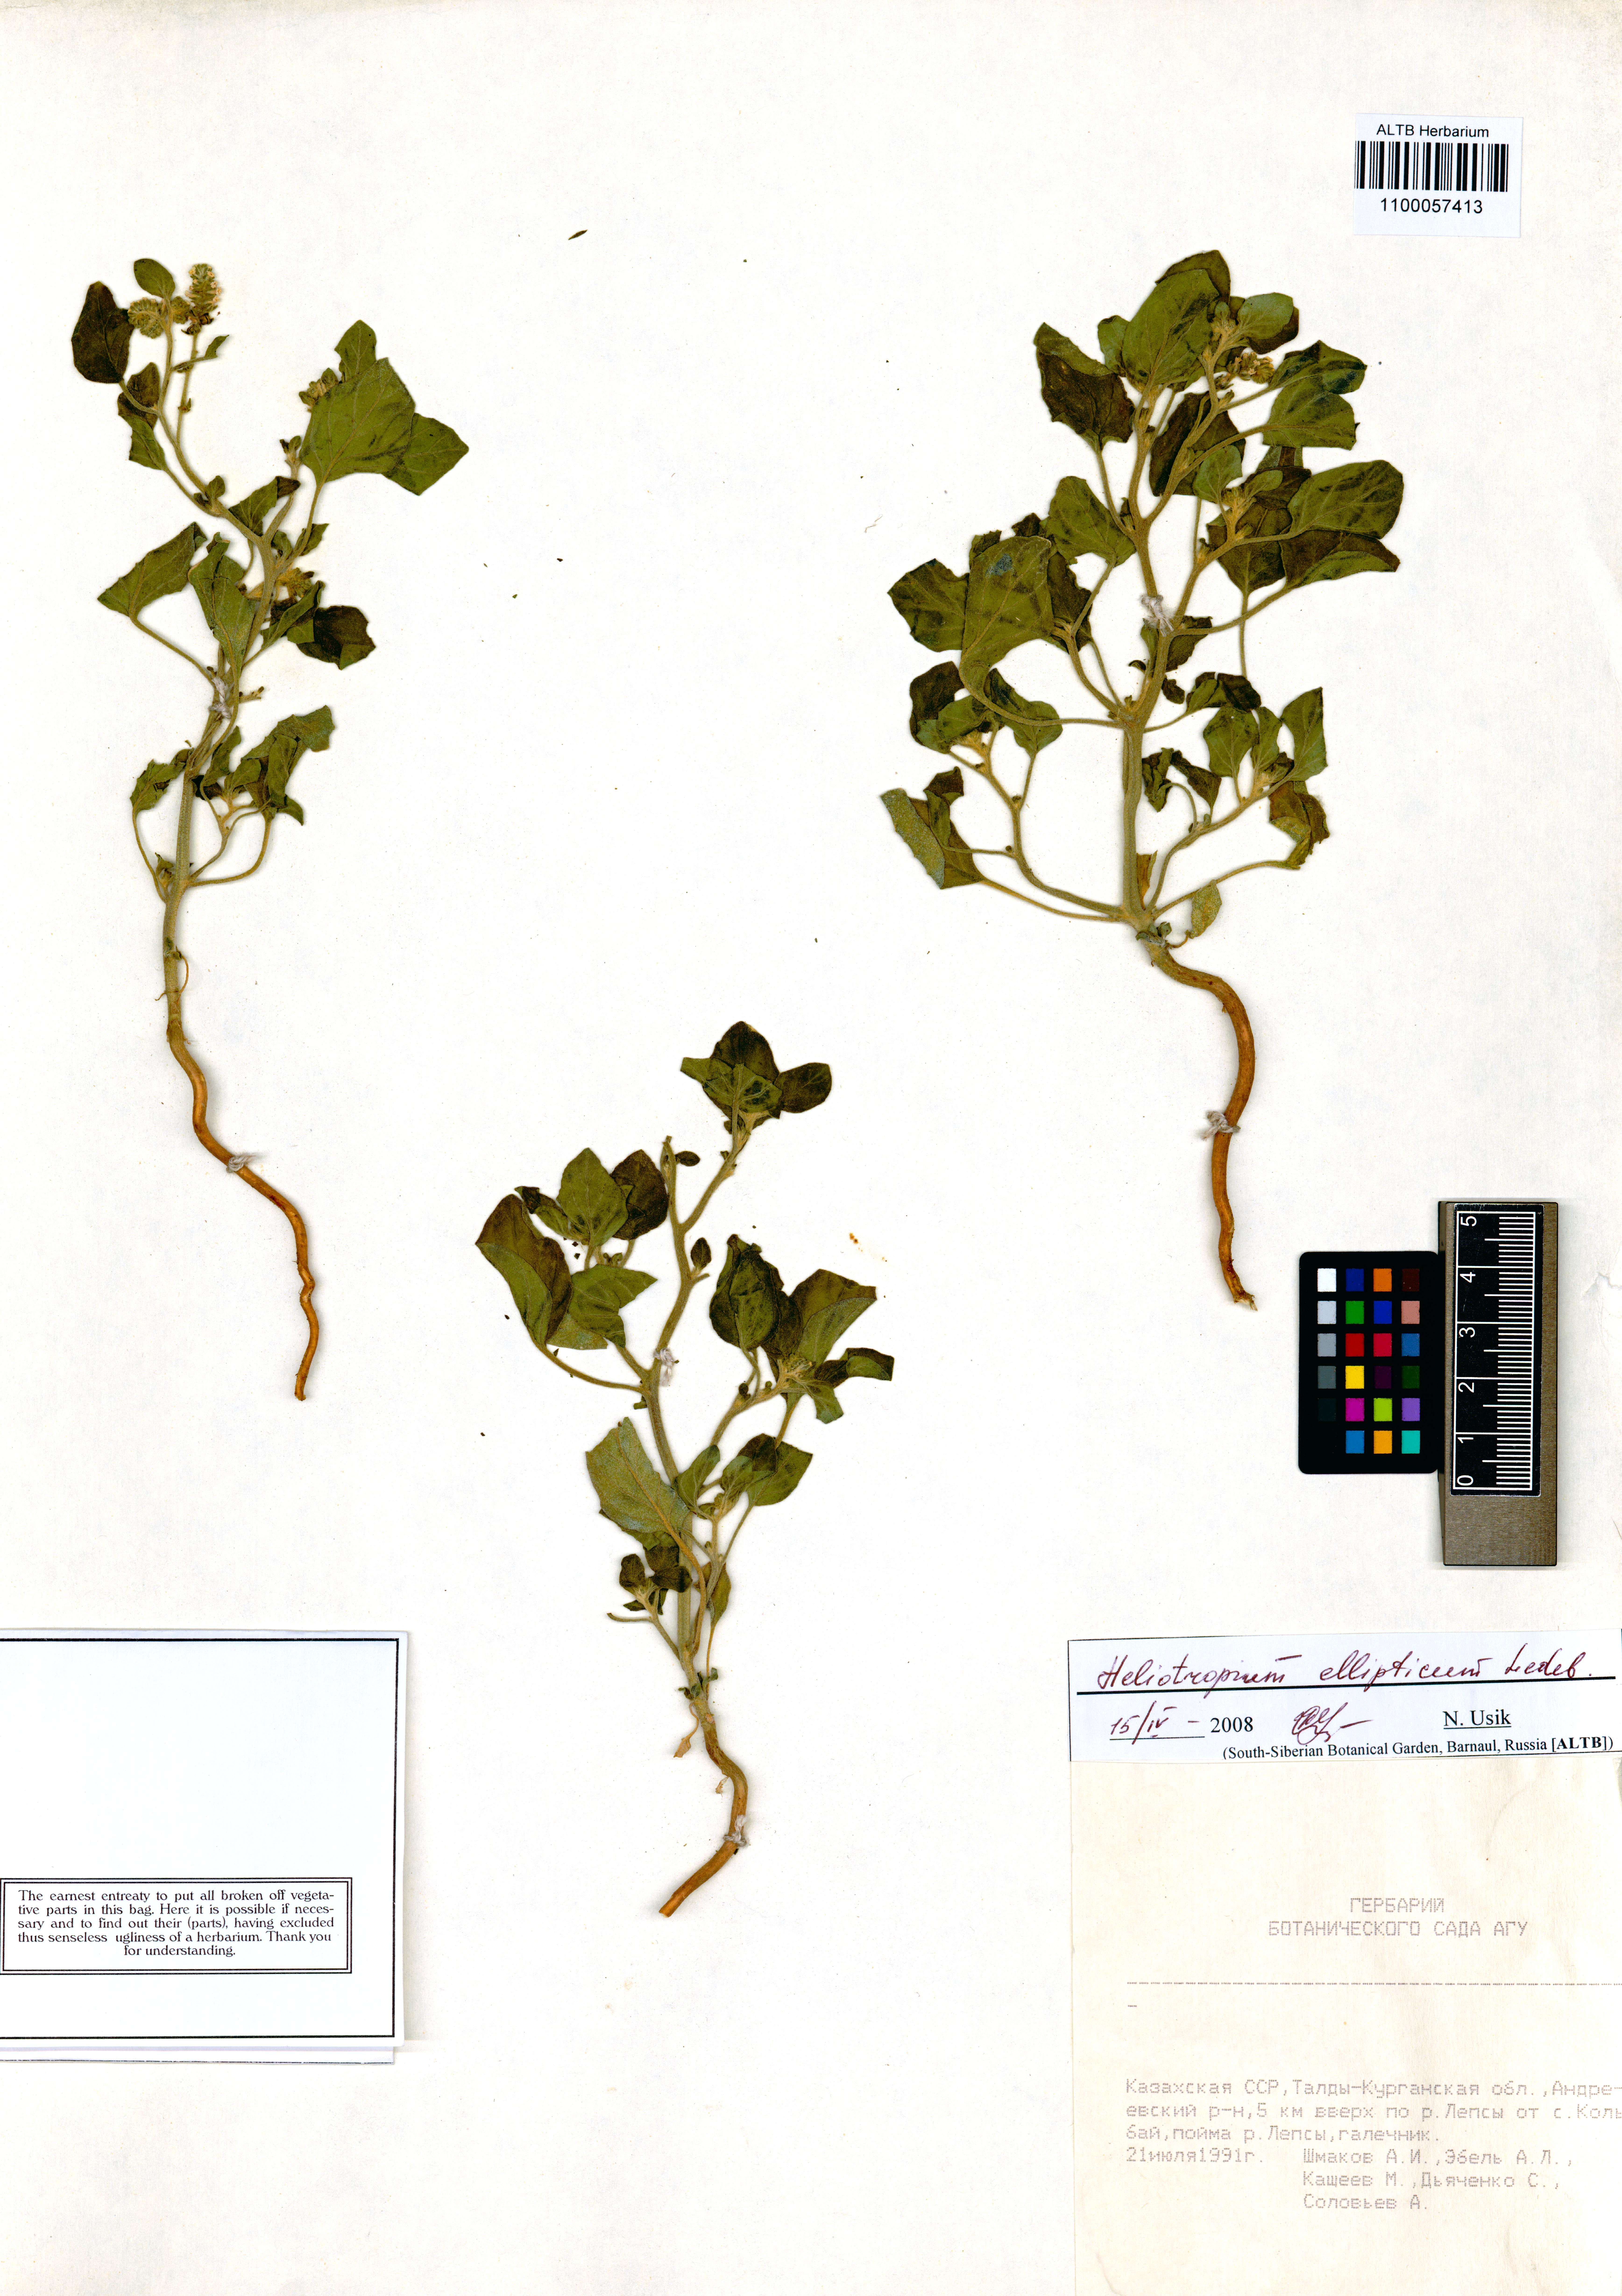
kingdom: Plantae
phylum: Tracheophyta
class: Magnoliopsida
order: Boraginales
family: Heliotropiaceae
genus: Heliotropium
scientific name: Heliotropium ellipticum
